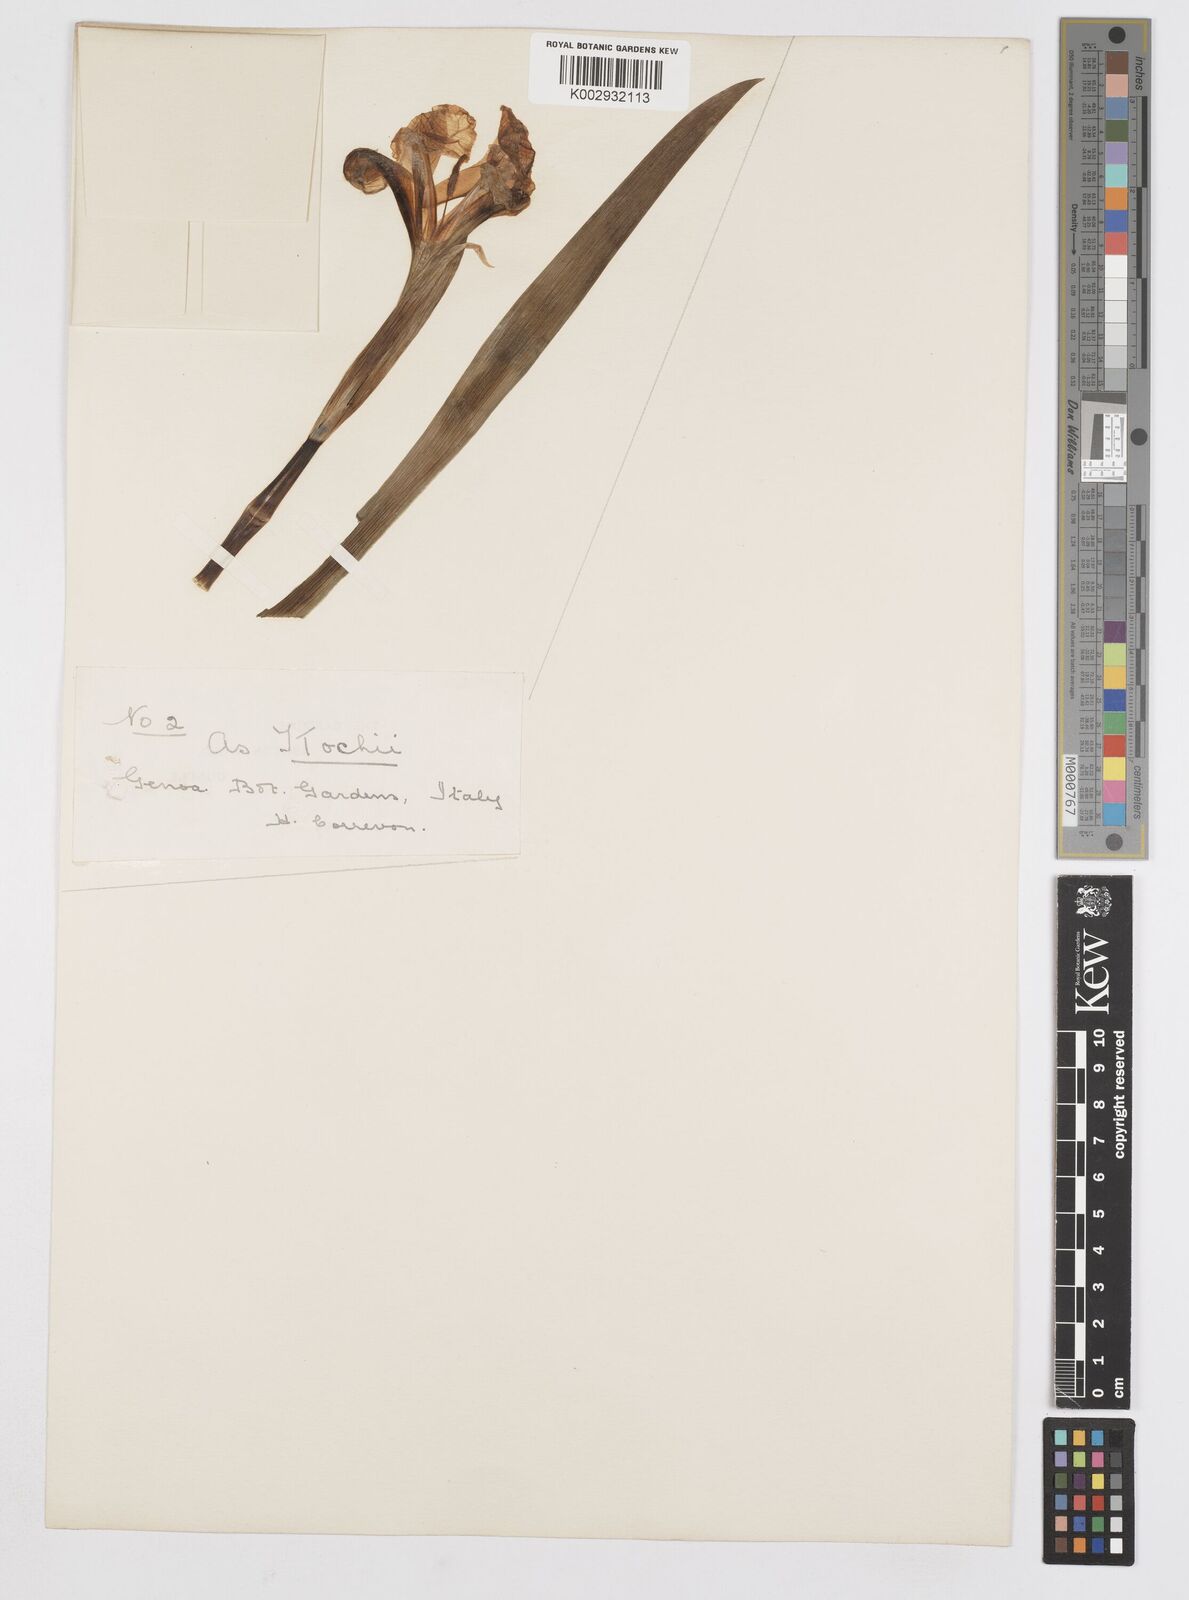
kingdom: Plantae
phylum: Tracheophyta
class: Liliopsida
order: Asparagales
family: Iridaceae
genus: Iris
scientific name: Iris kochii
